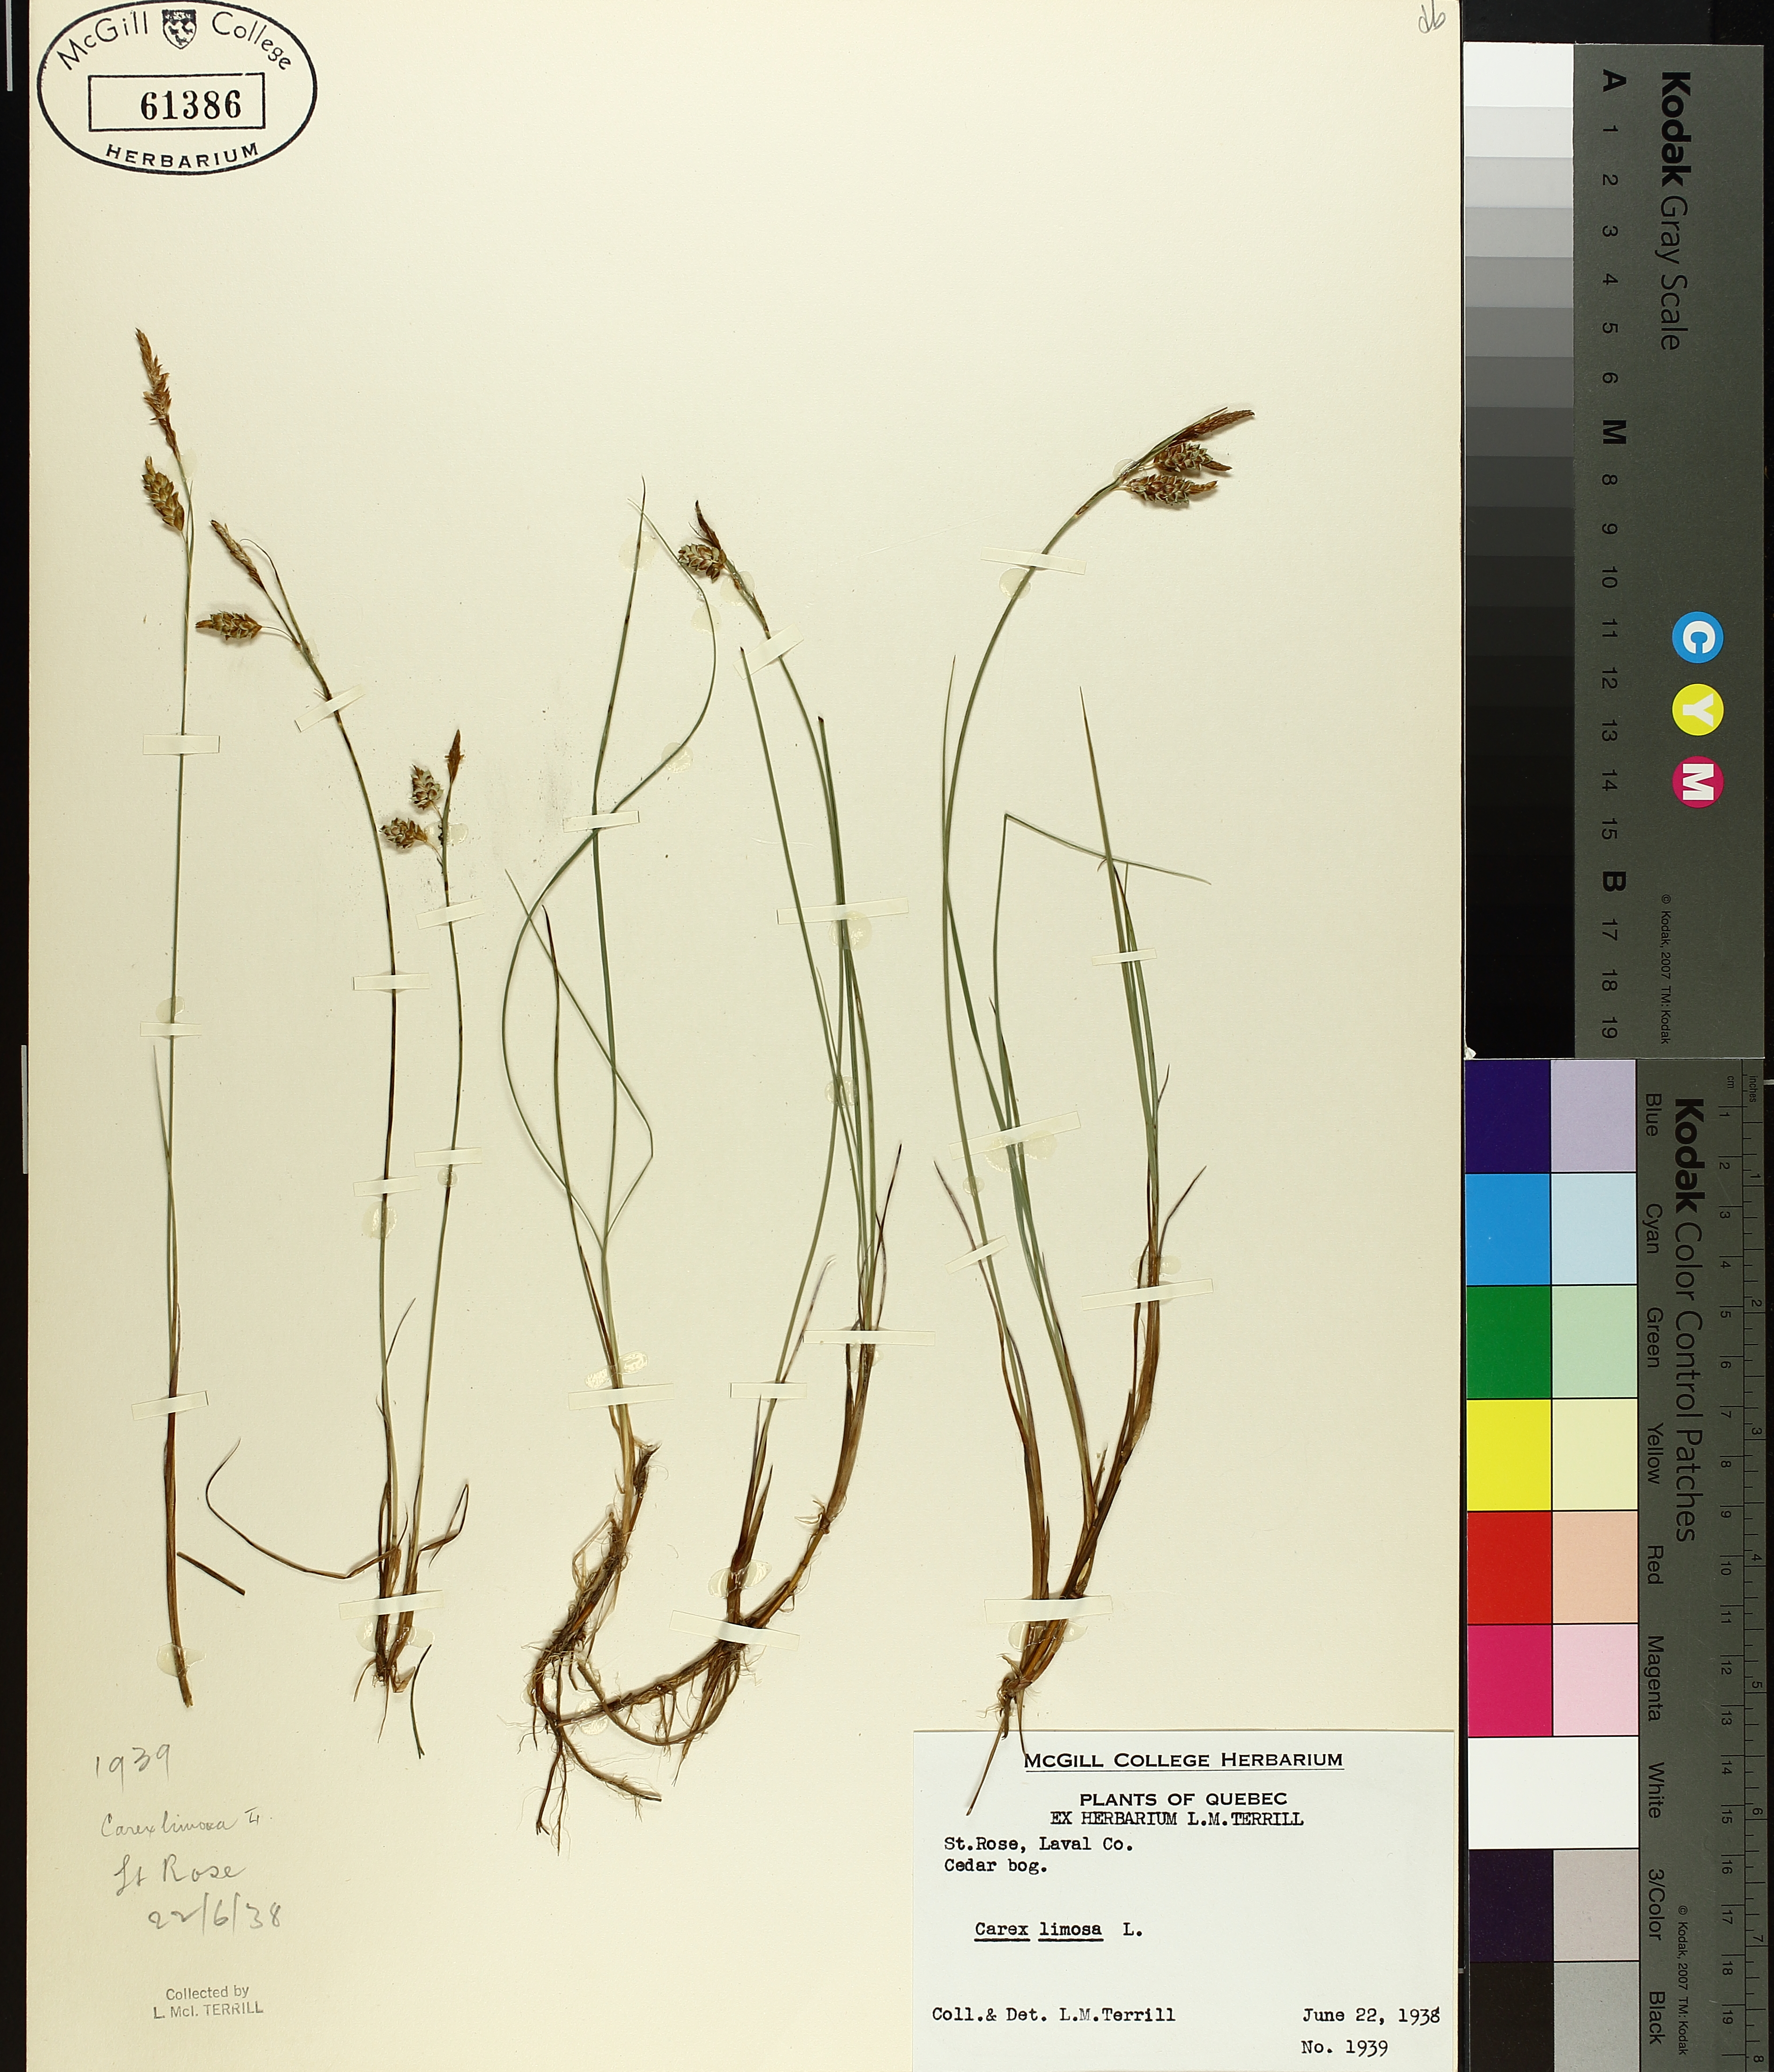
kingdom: Plantae
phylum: Tracheophyta
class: Liliopsida
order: Poales
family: Cyperaceae
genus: Carex
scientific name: Carex limosa
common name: Bog sedge
